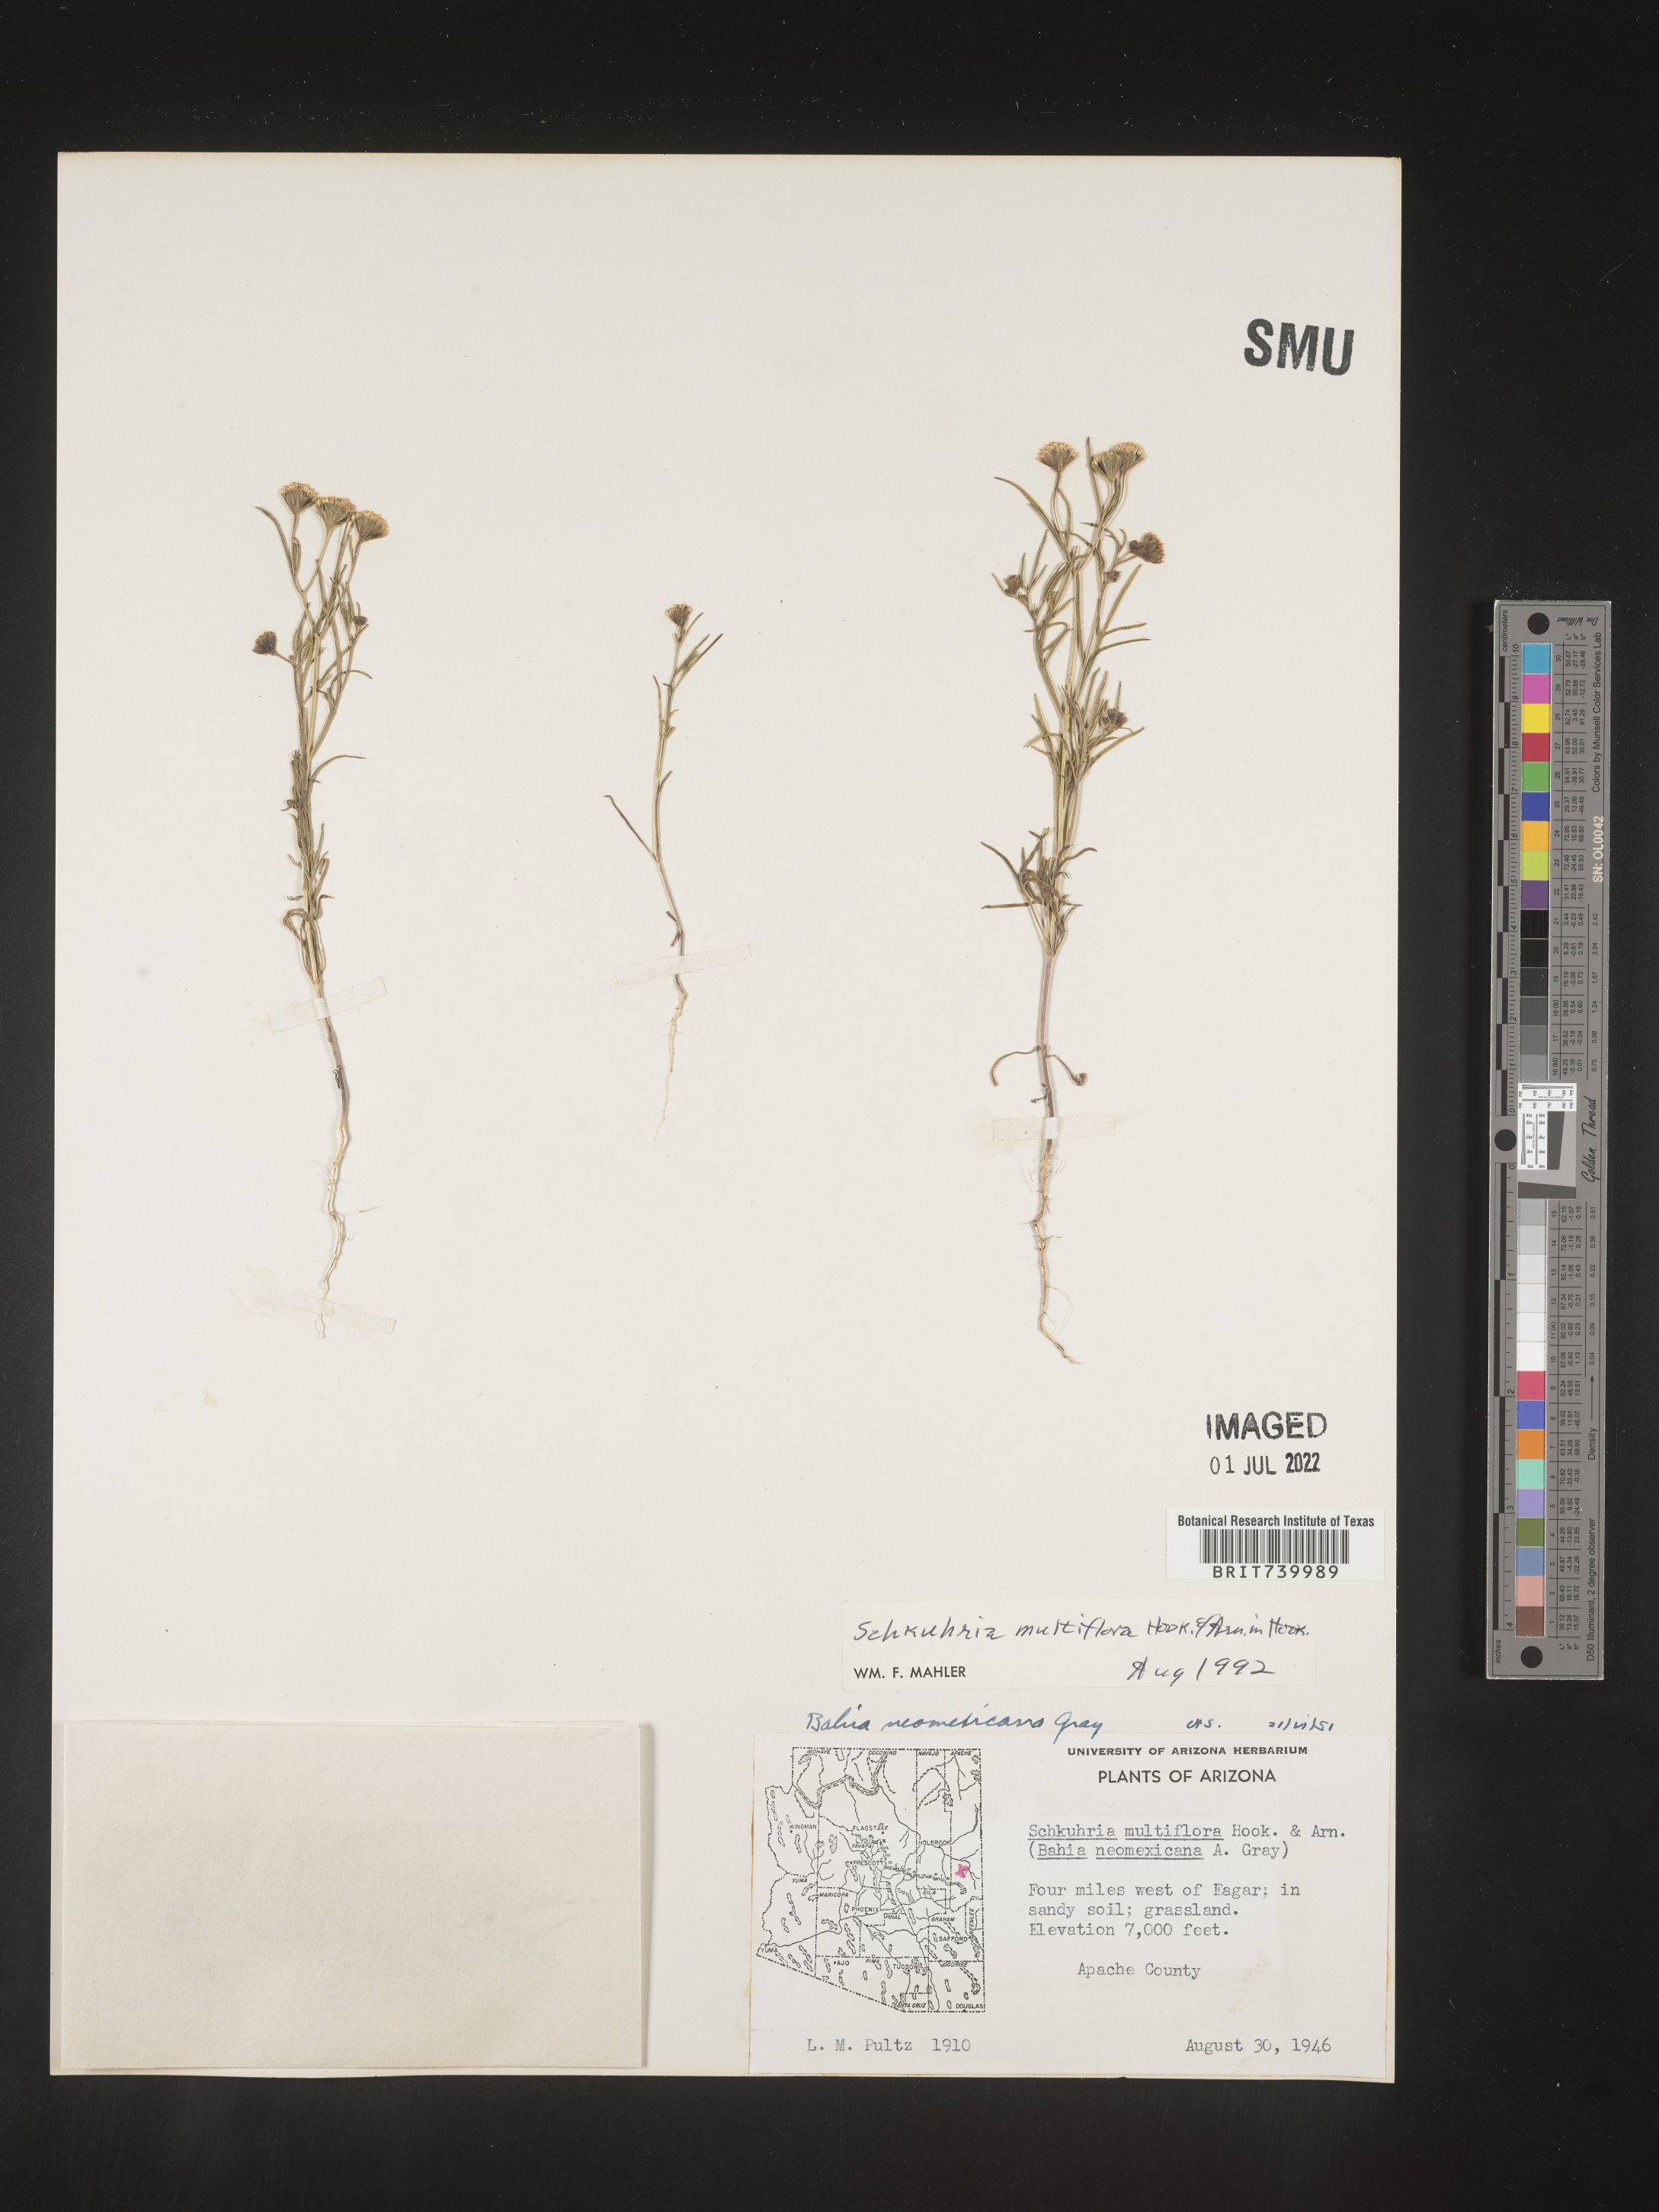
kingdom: Plantae
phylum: Tracheophyta
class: Magnoliopsida
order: Asterales
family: Asteraceae
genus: Schkuhria
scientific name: Schkuhria
